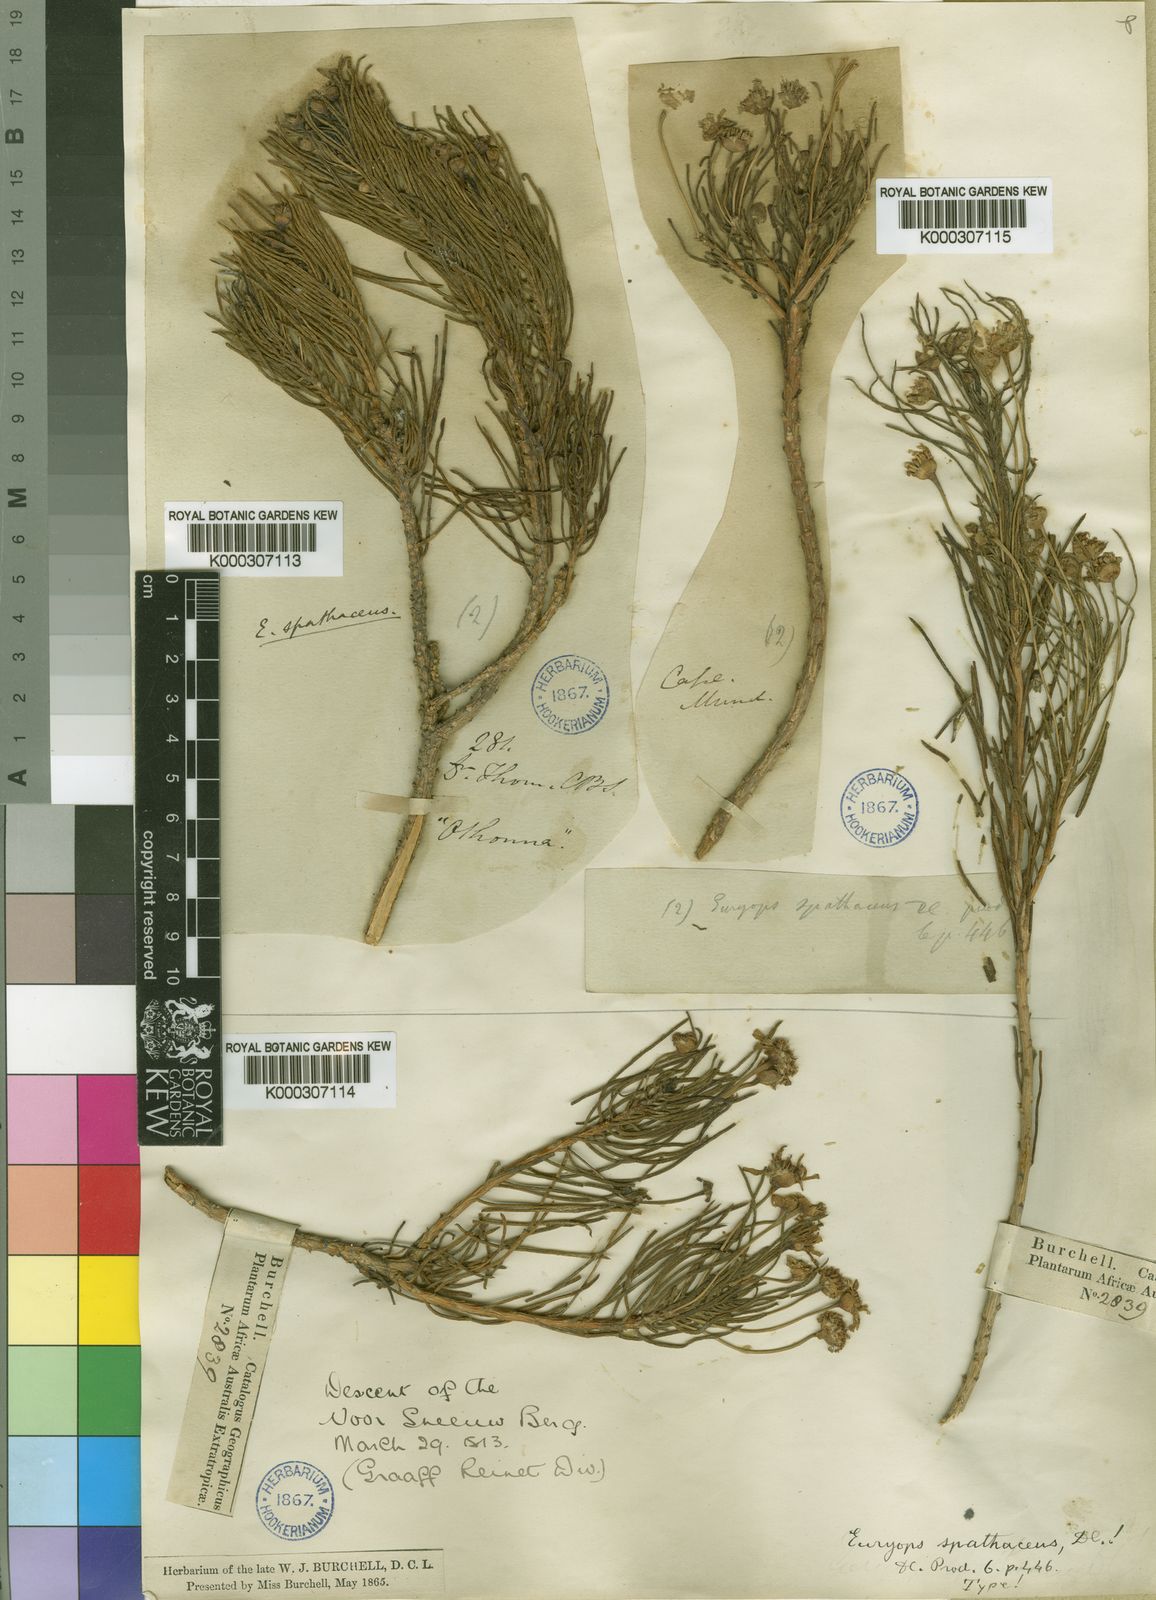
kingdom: Plantae
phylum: Tracheophyta
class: Magnoliopsida
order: Asterales
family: Asteraceae
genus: Euryops
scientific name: Euryops spathaceus
